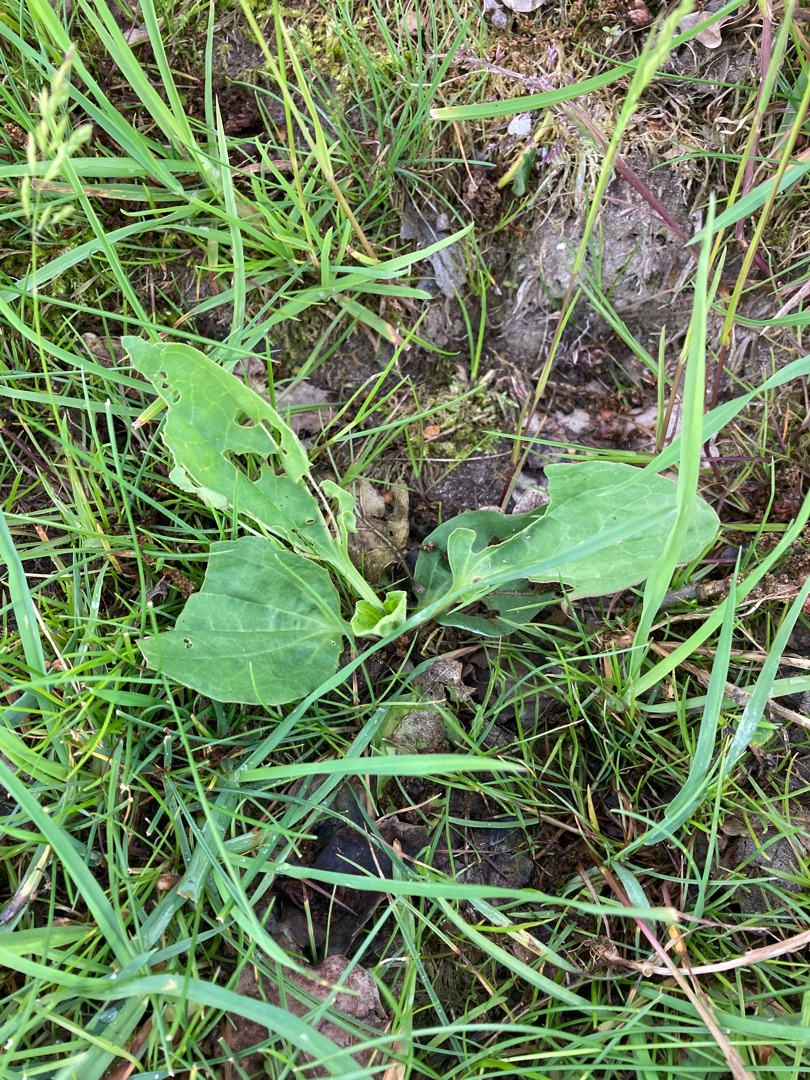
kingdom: Plantae
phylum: Tracheophyta
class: Magnoliopsida
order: Lamiales
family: Plantaginaceae
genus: Plantago
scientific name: Plantago major
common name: Glat vejbred
